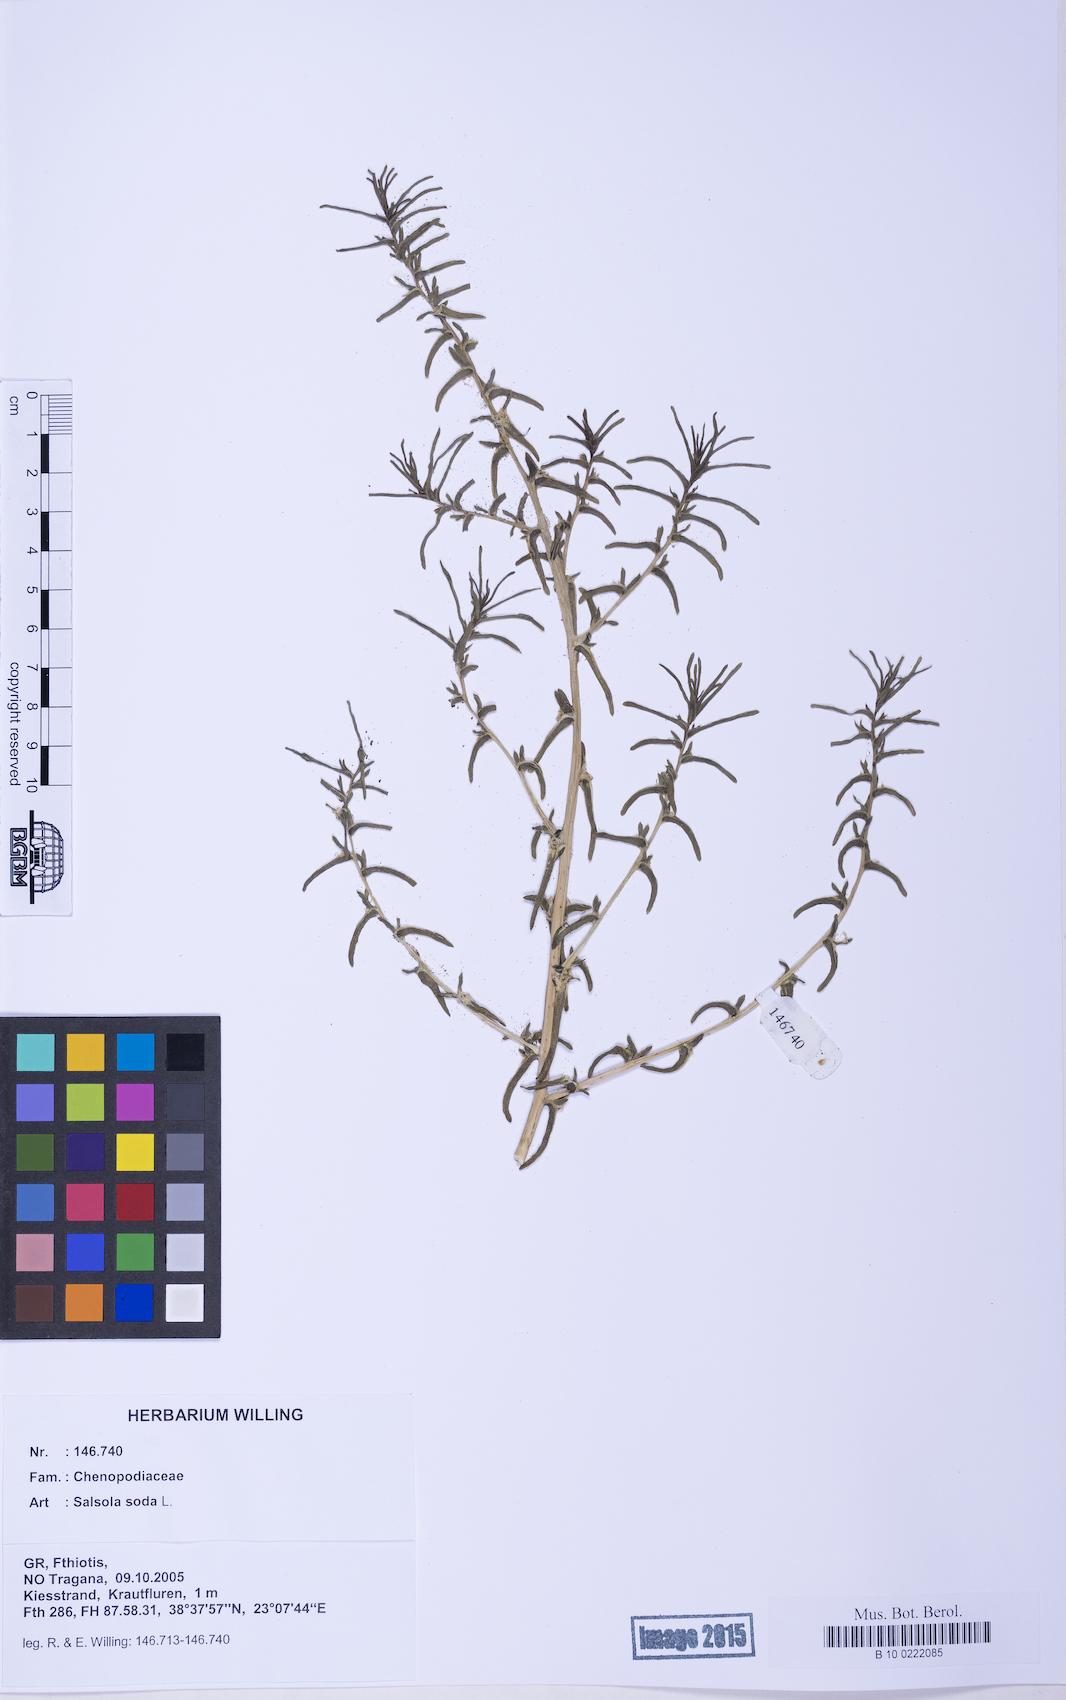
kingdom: Plantae
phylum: Tracheophyta
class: Magnoliopsida
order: Caryophyllales
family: Amaranthaceae
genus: Soda
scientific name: Soda inermis
